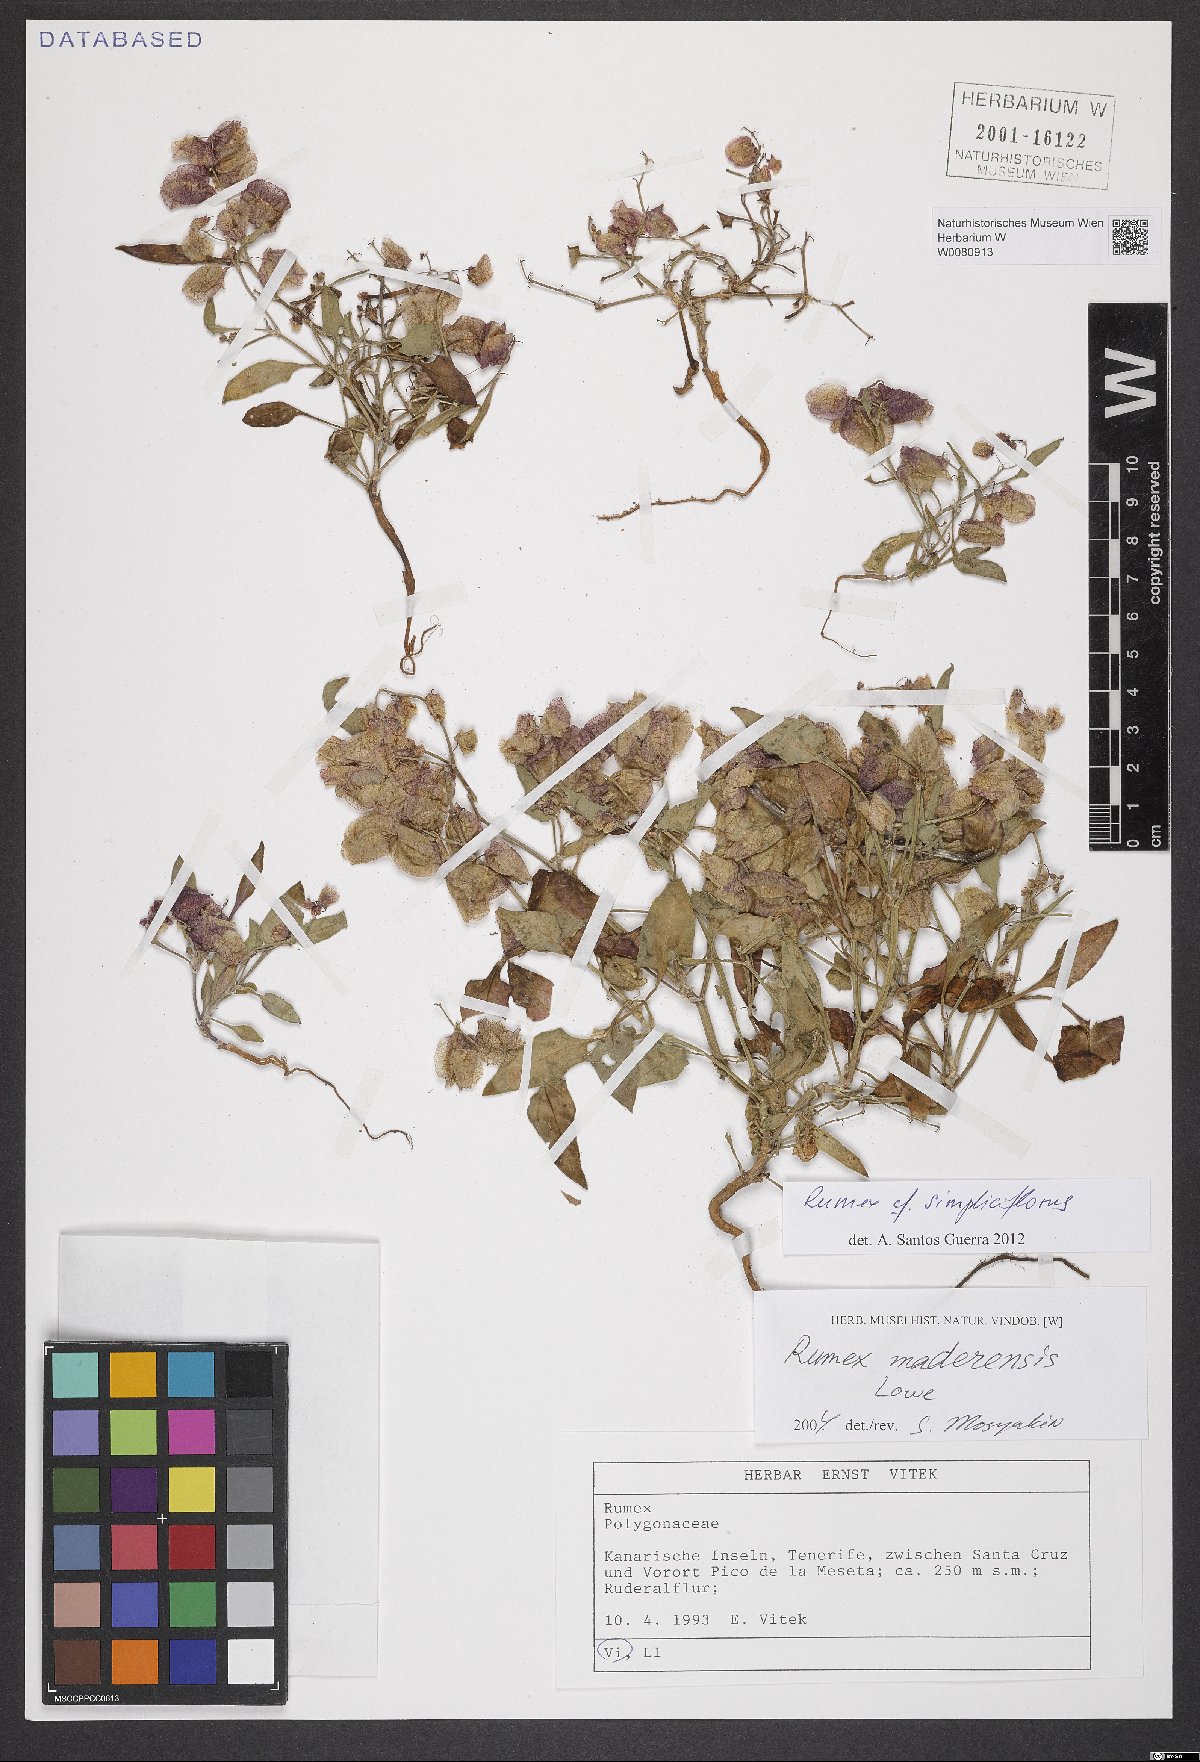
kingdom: Plantae
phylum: Tracheophyta
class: Magnoliopsida
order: Caryophyllales
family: Polygonaceae
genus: Rumex
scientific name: Rumex simpliciflorus
